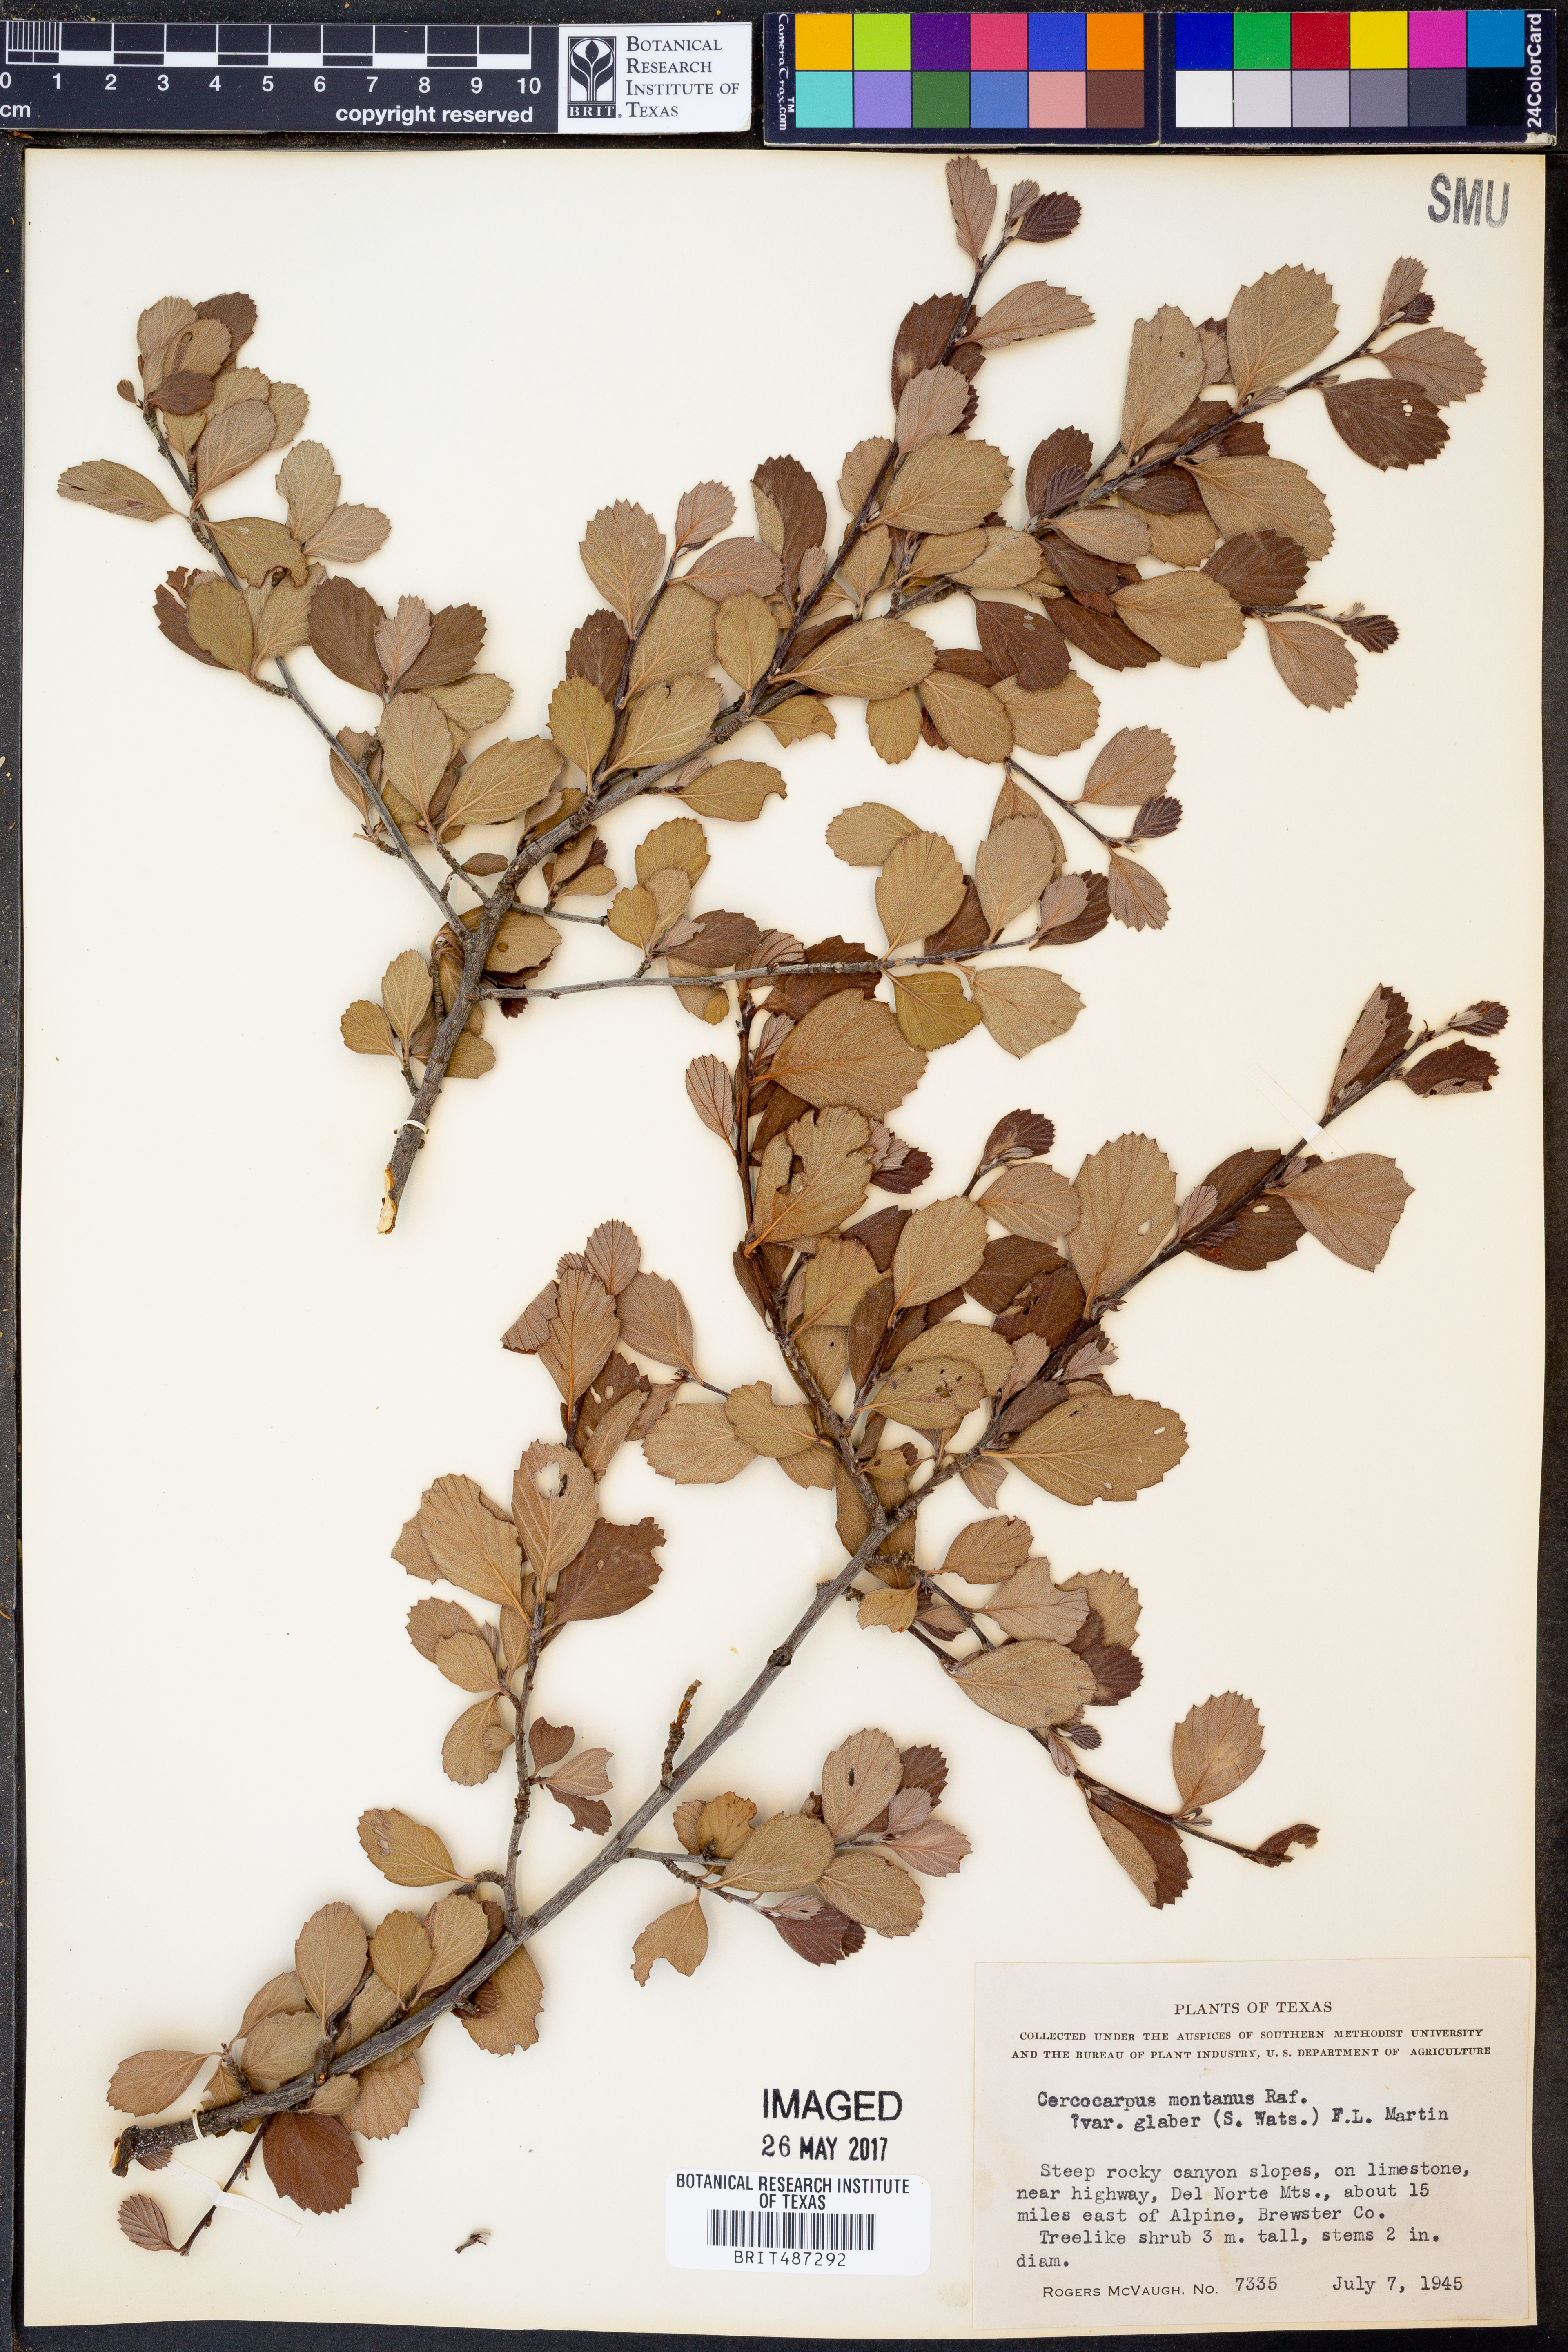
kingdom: Plantae
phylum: Tracheophyta
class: Magnoliopsida
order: Rosales
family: Rosaceae
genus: Cercocarpus
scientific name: Cercocarpus montanus
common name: Alder-leaf cercocarpus
